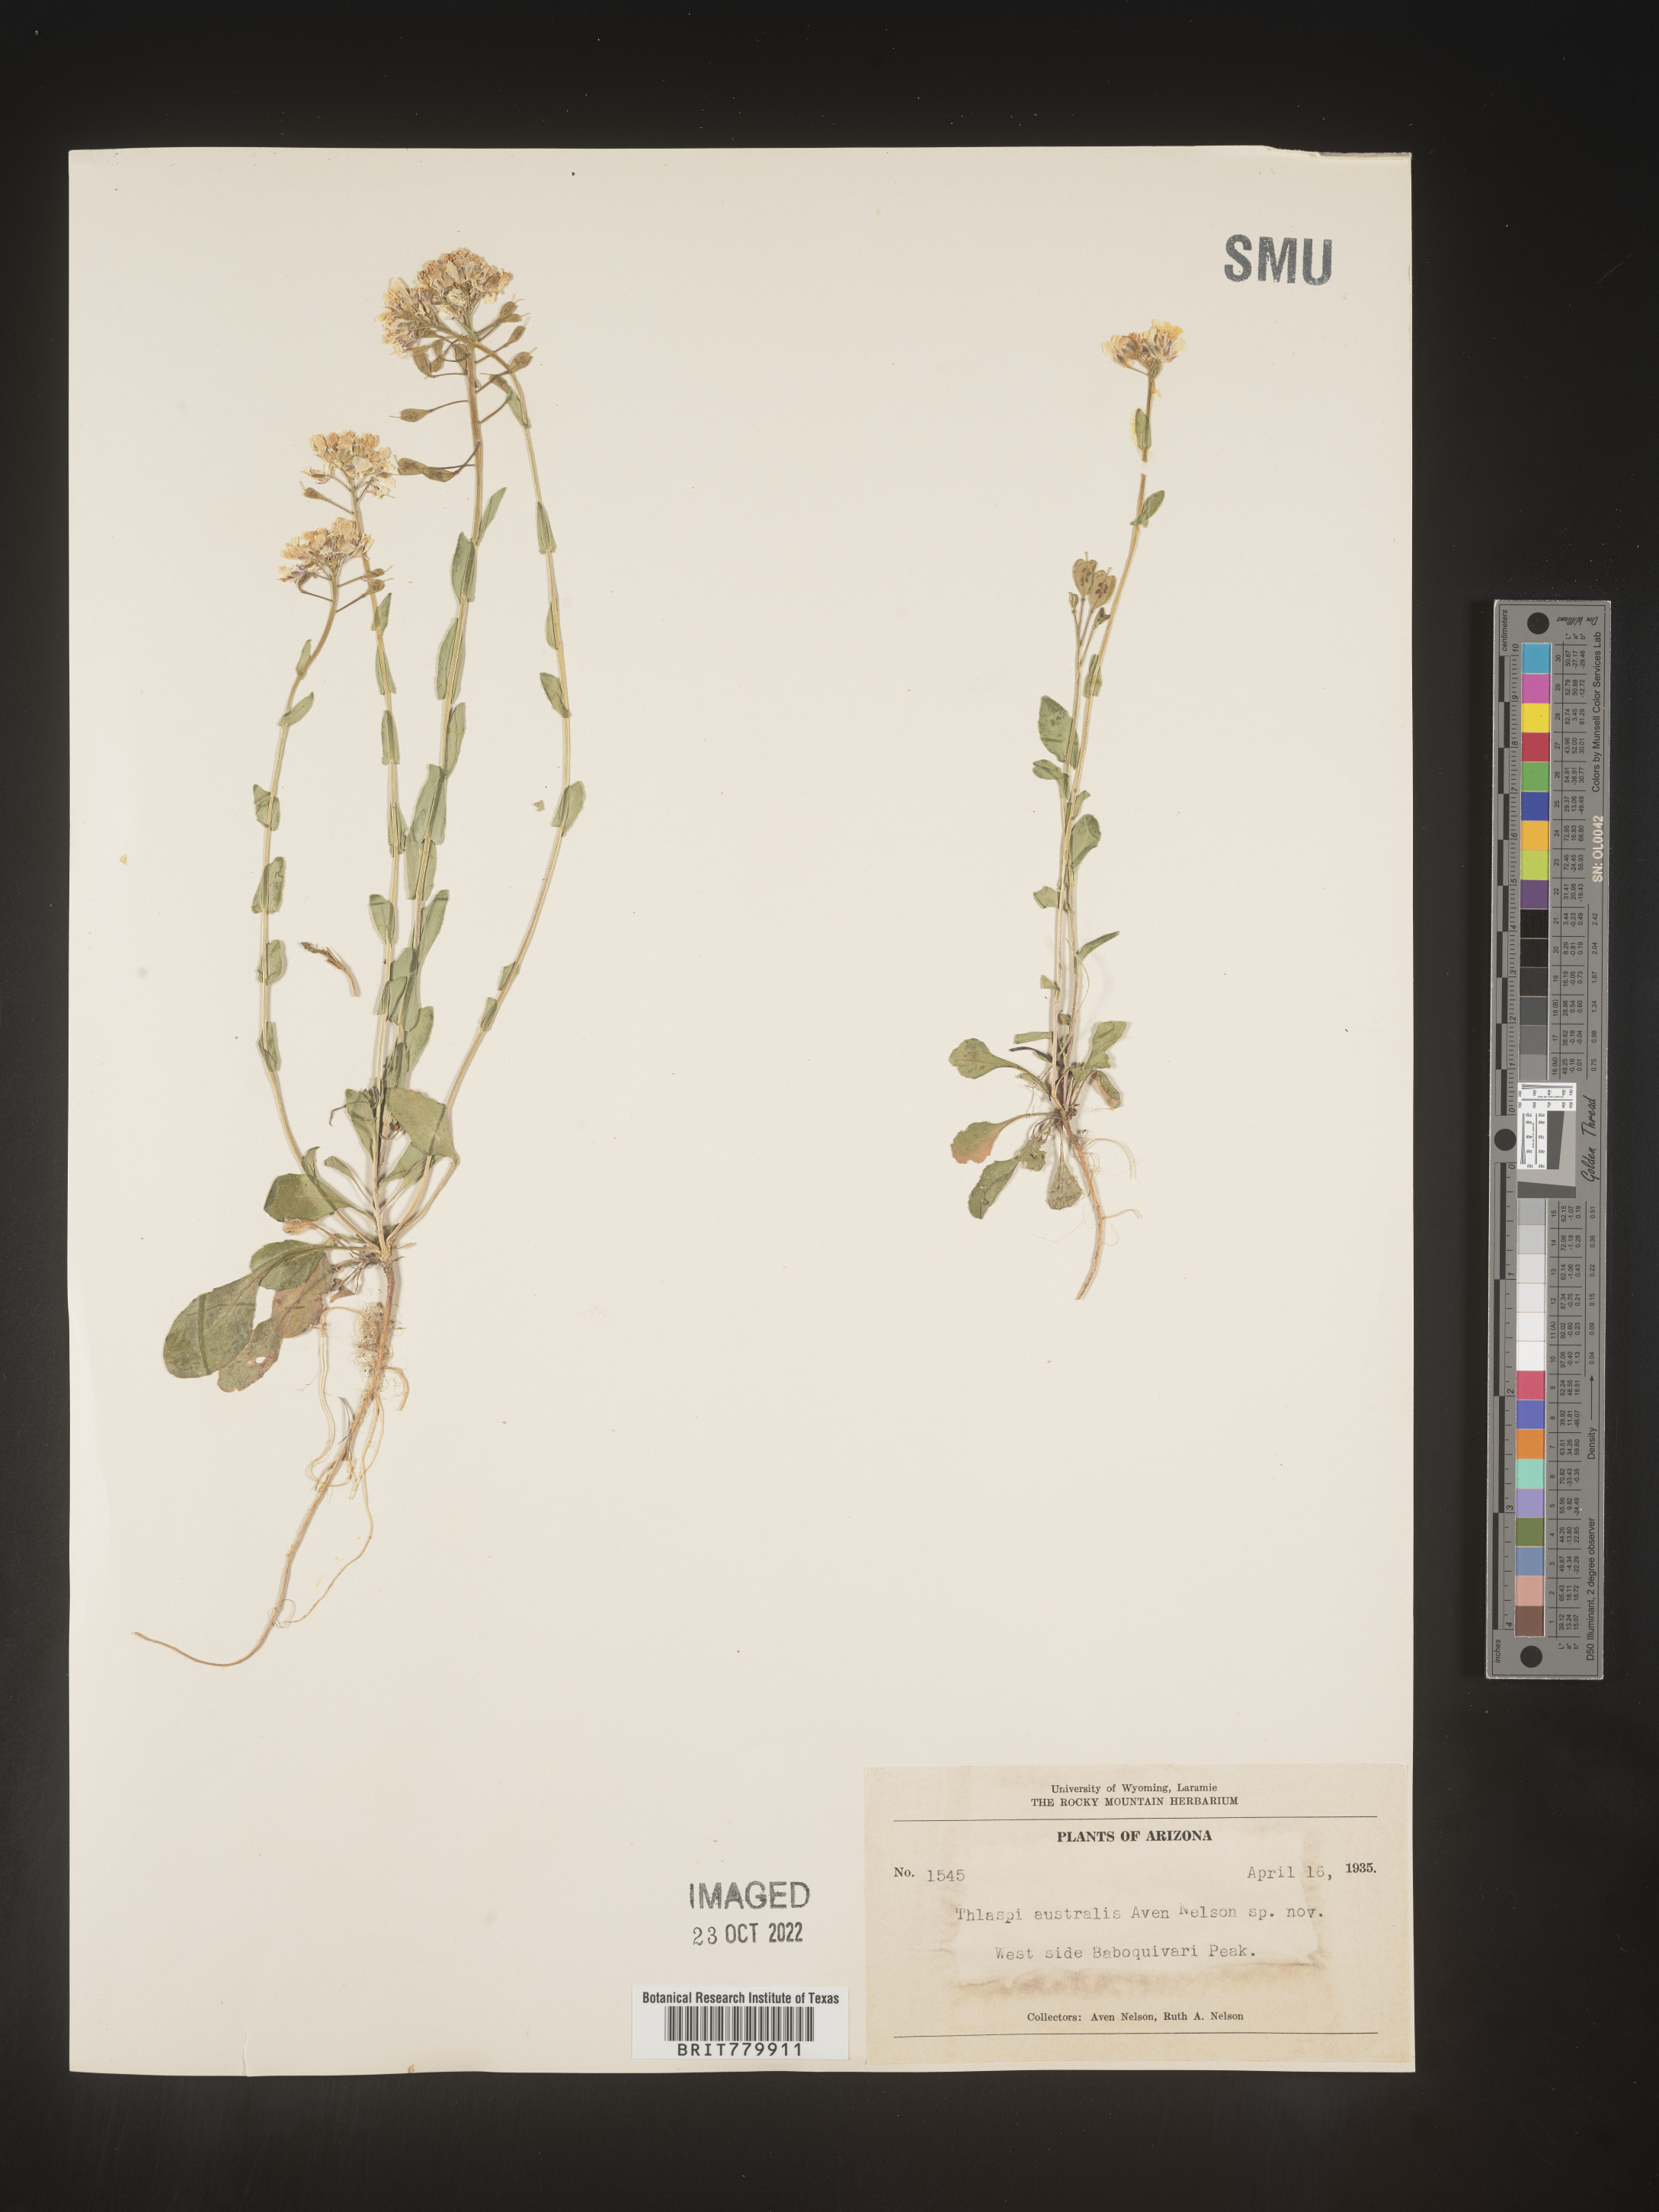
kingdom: Plantae
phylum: Tracheophyta
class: Magnoliopsida
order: Brassicales
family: Brassicaceae
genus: Thlaspi
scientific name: Thlaspi
